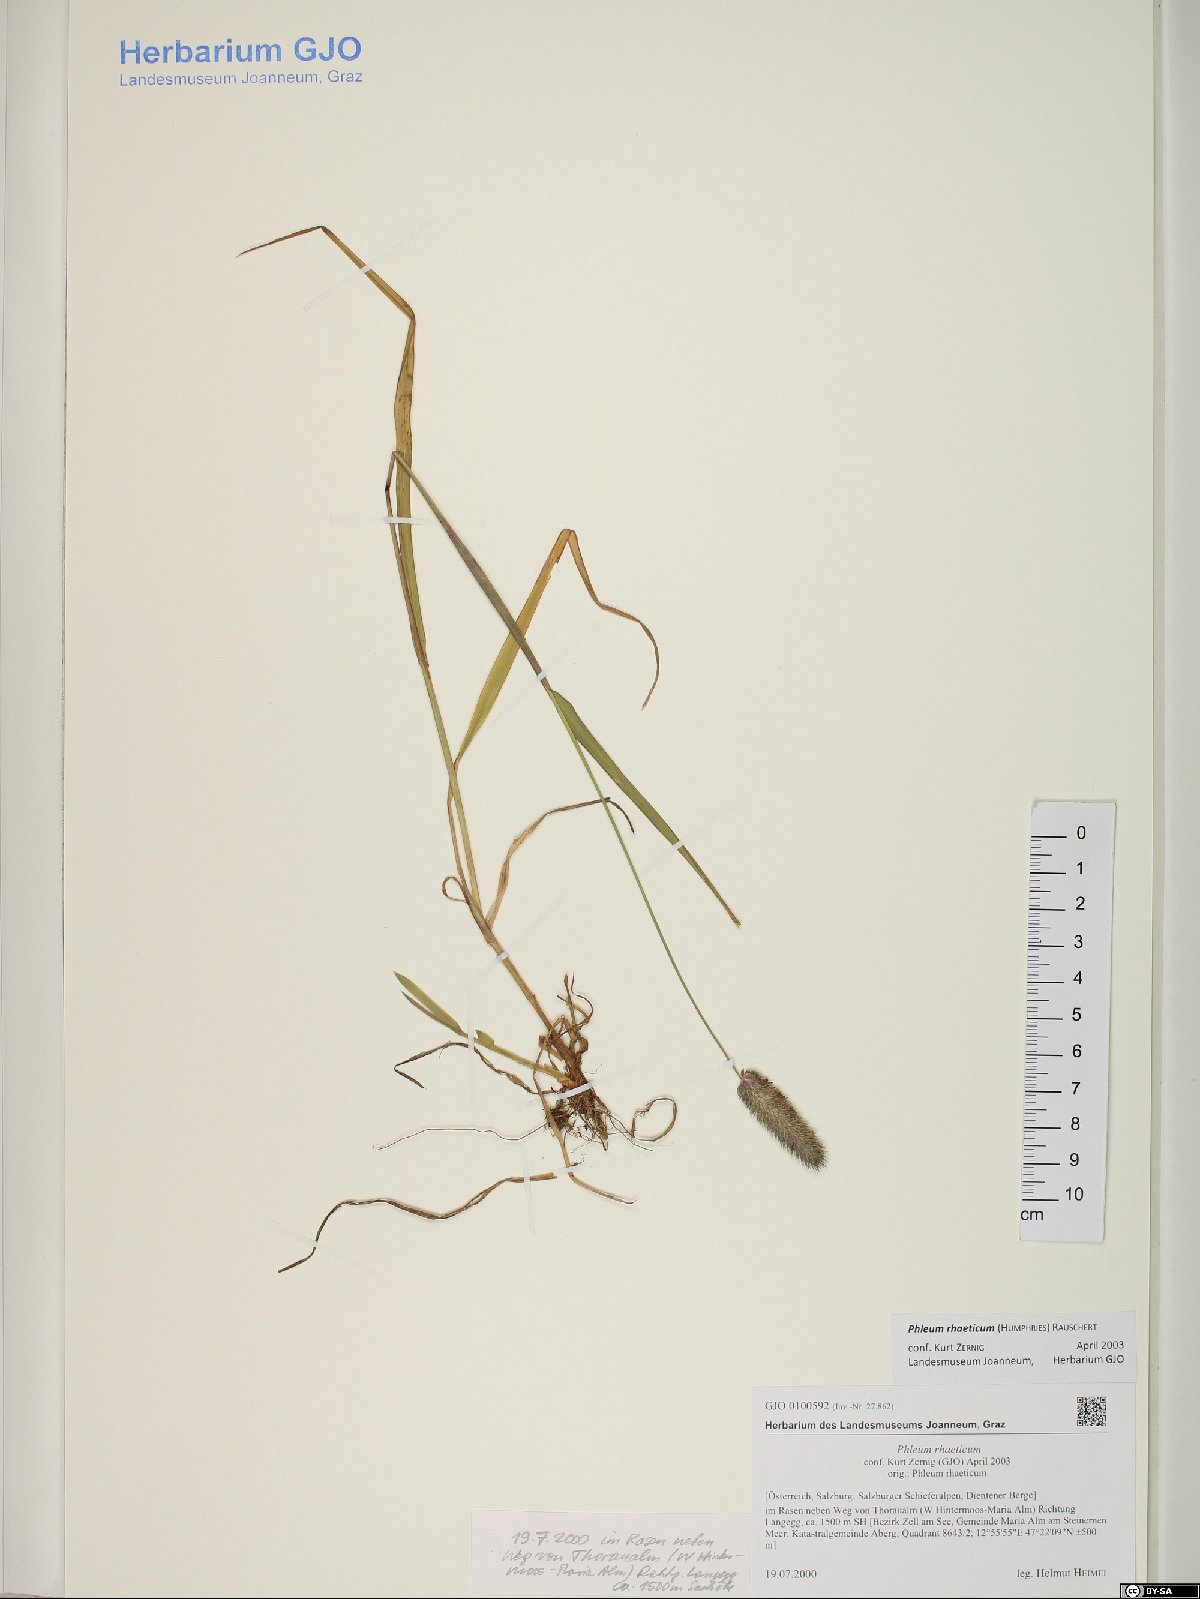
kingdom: Plantae
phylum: Tracheophyta
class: Liliopsida
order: Poales
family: Poaceae
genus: Phleum
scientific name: Phleum alpinum
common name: Alpine cat's-tail
